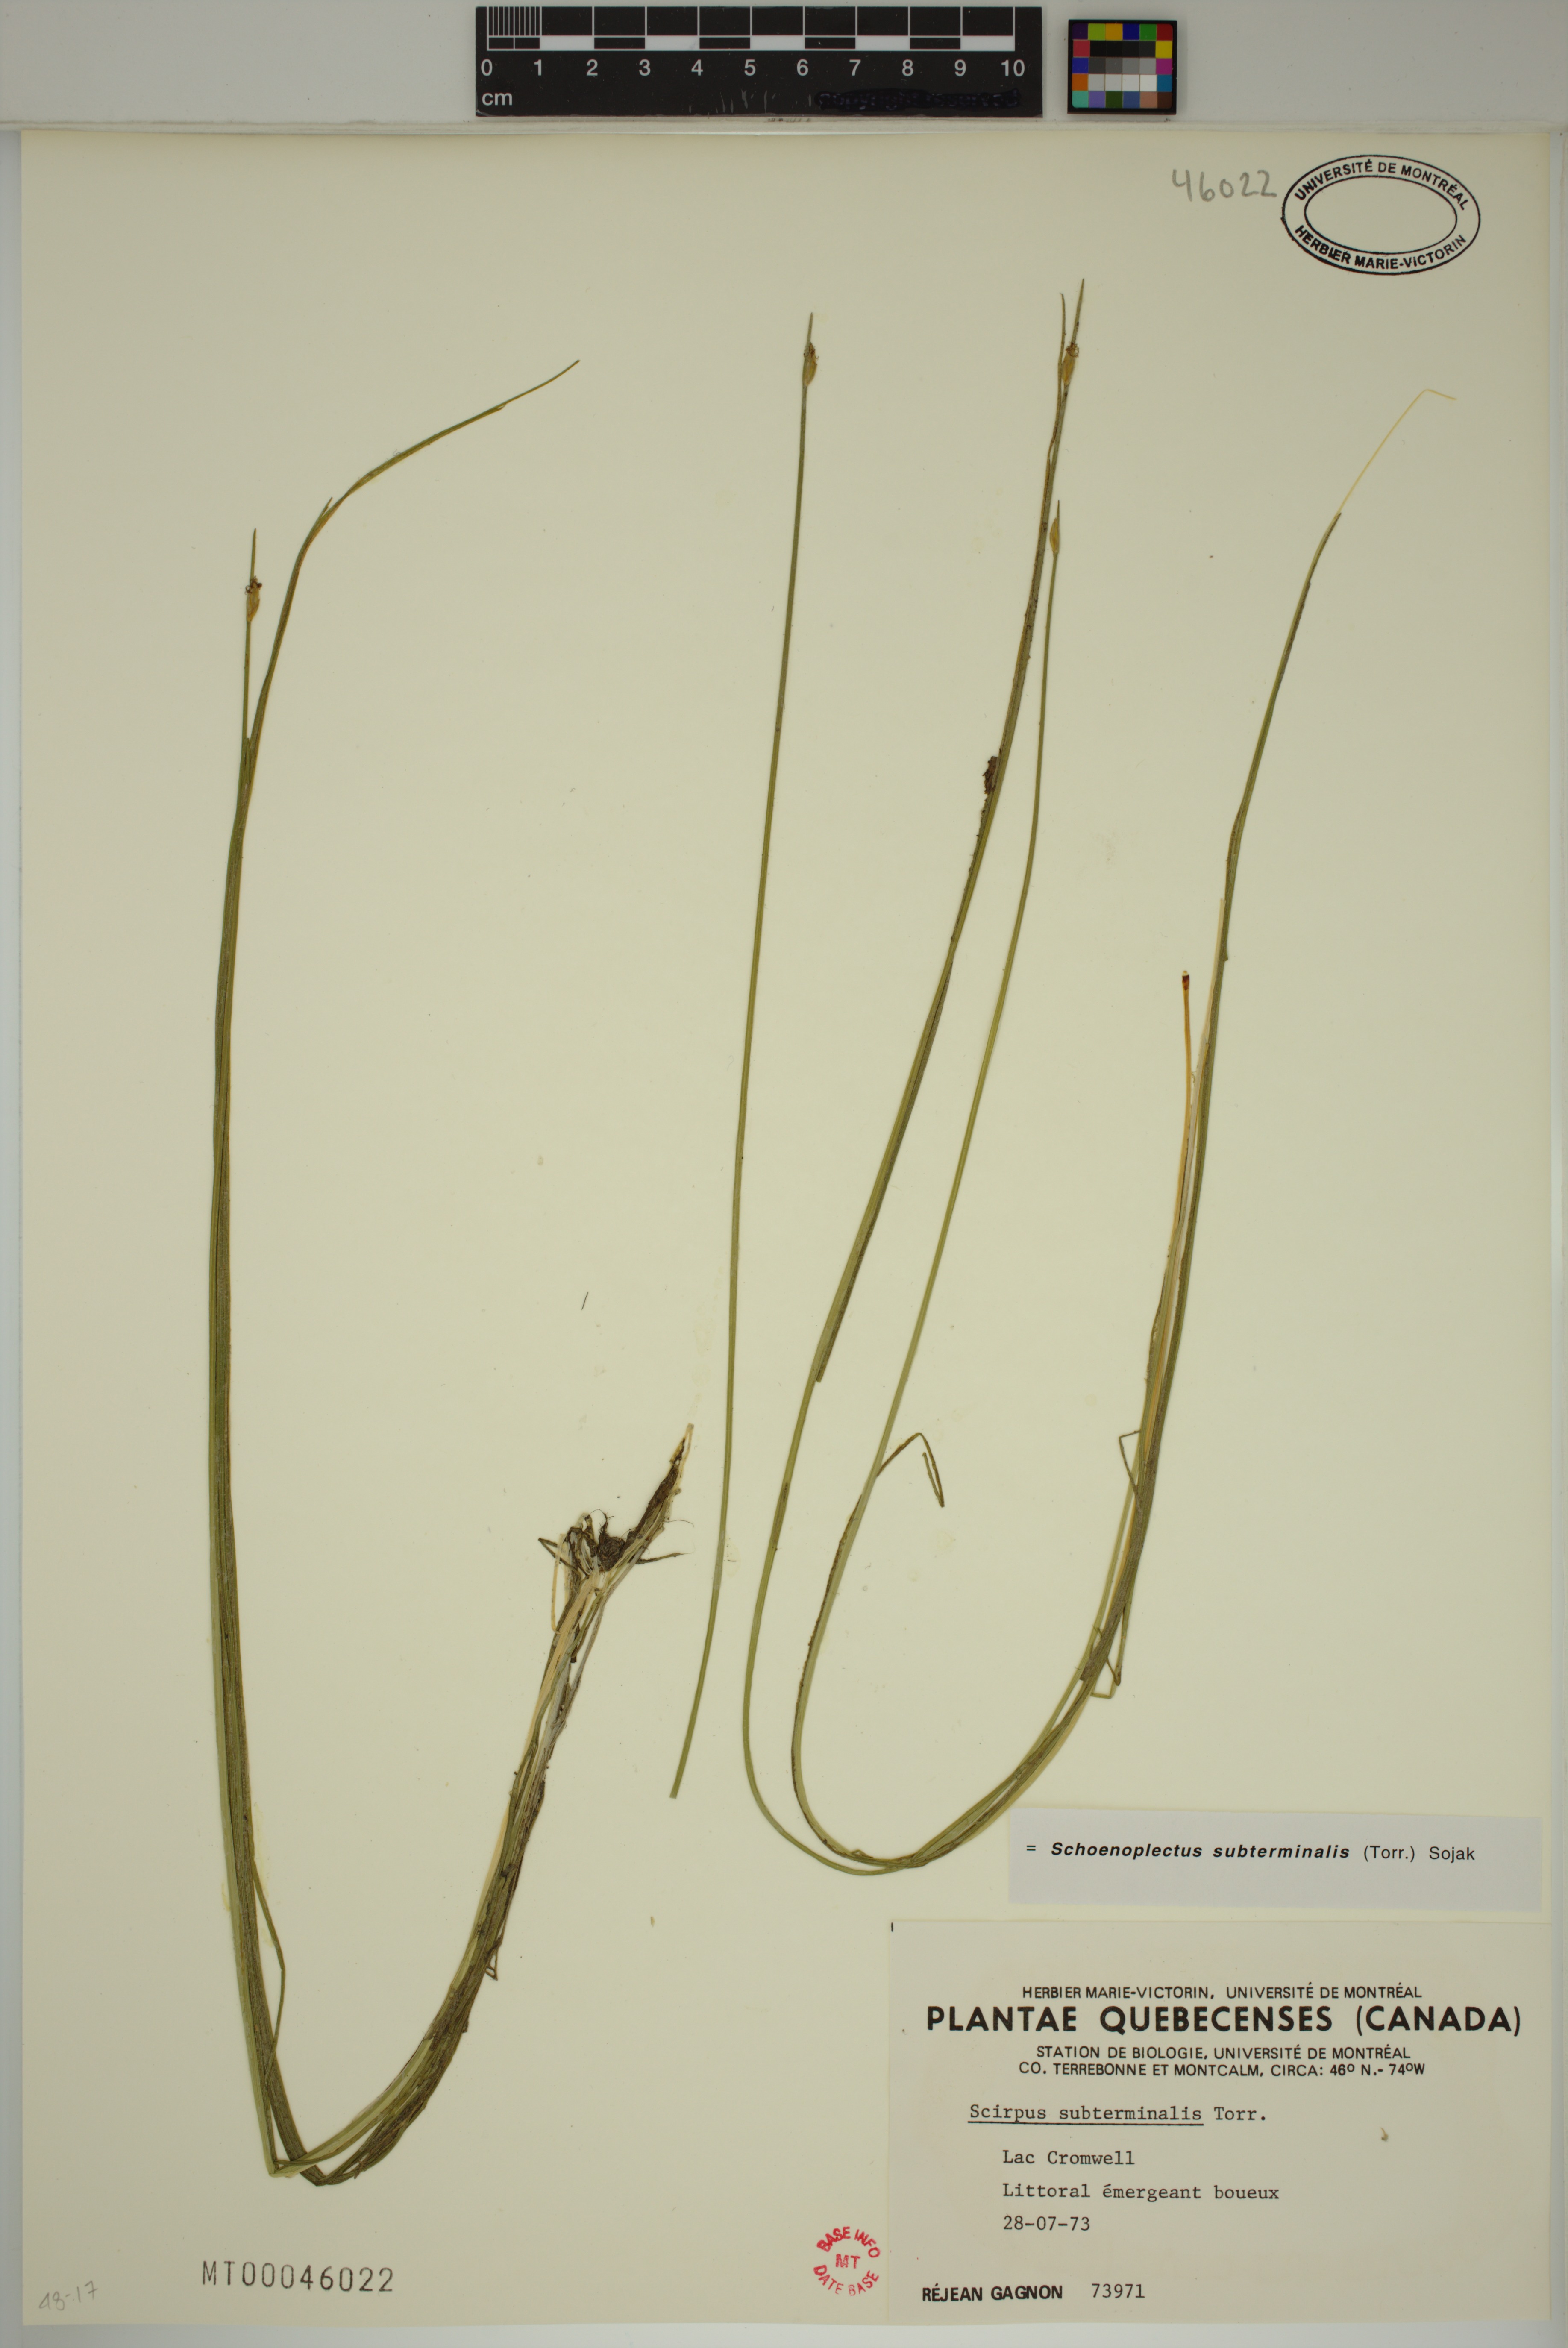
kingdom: Plantae
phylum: Tracheophyta
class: Liliopsida
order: Poales
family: Cyperaceae
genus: Schoenoplectus
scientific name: Schoenoplectus subterminalis
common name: Swaying bulrush
